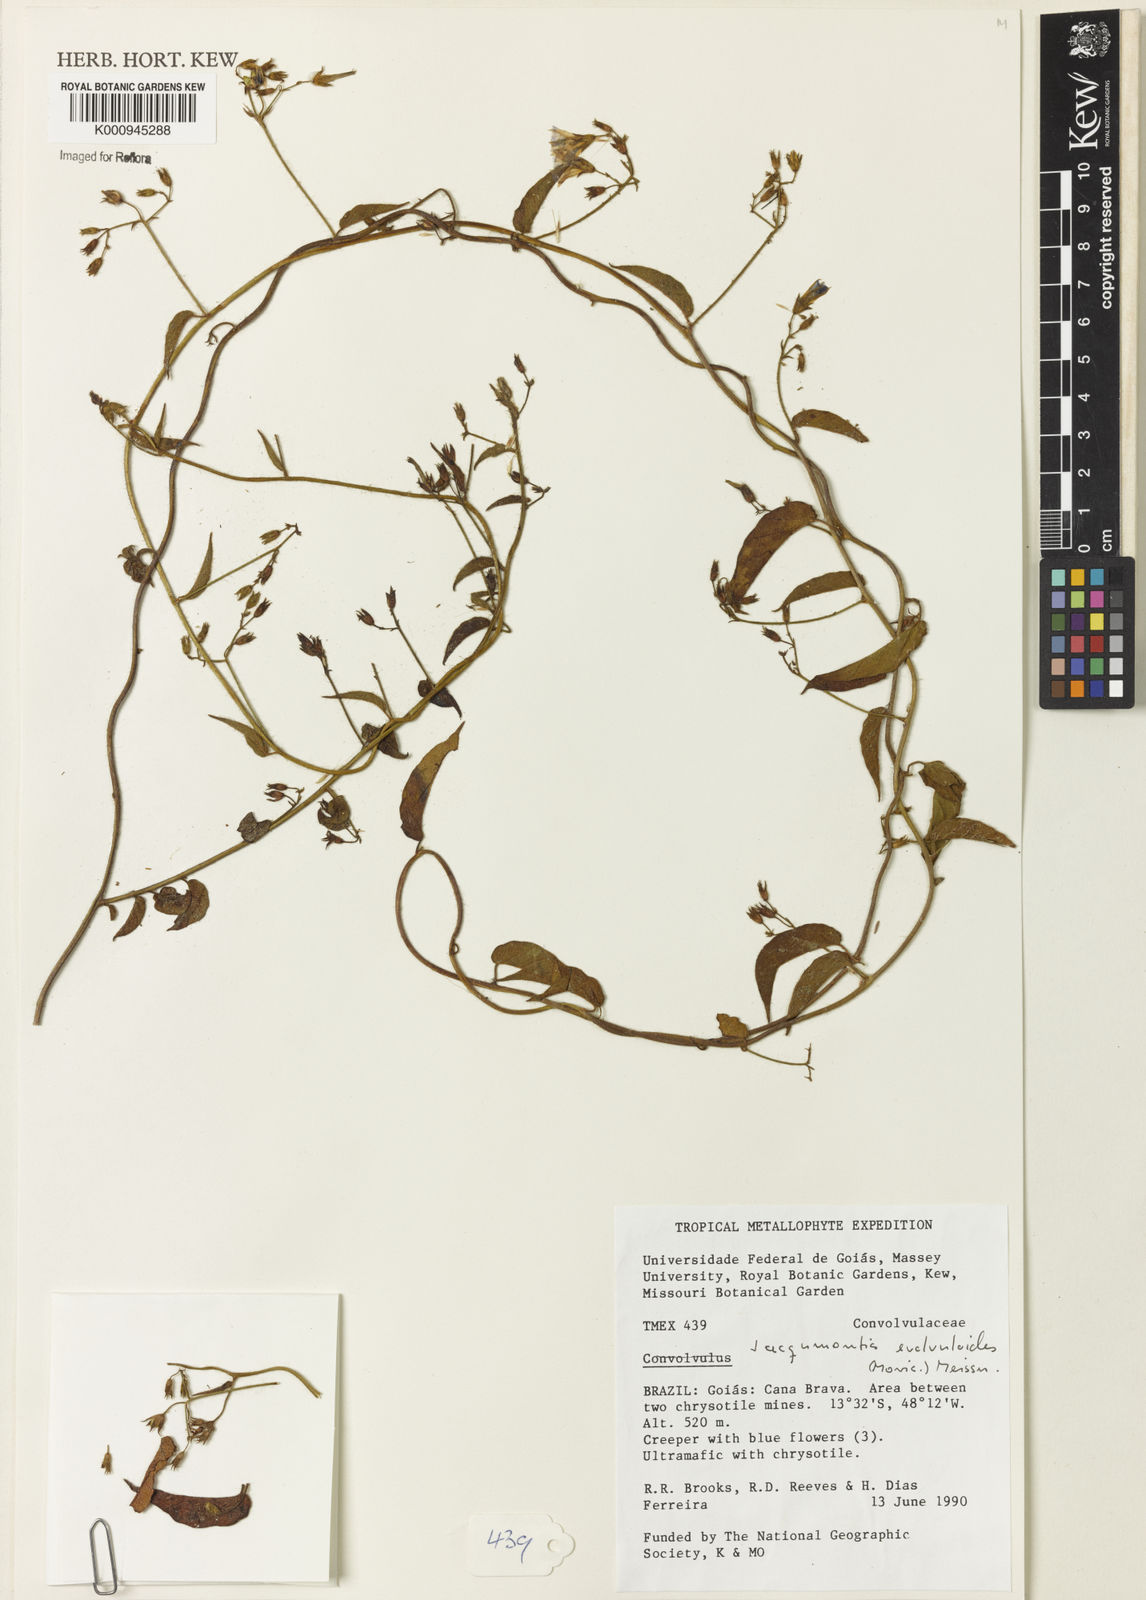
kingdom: Plantae
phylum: Tracheophyta
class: Magnoliopsida
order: Solanales
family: Convolvulaceae
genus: Jacquemontia
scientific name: Jacquemontia evolvuloides
